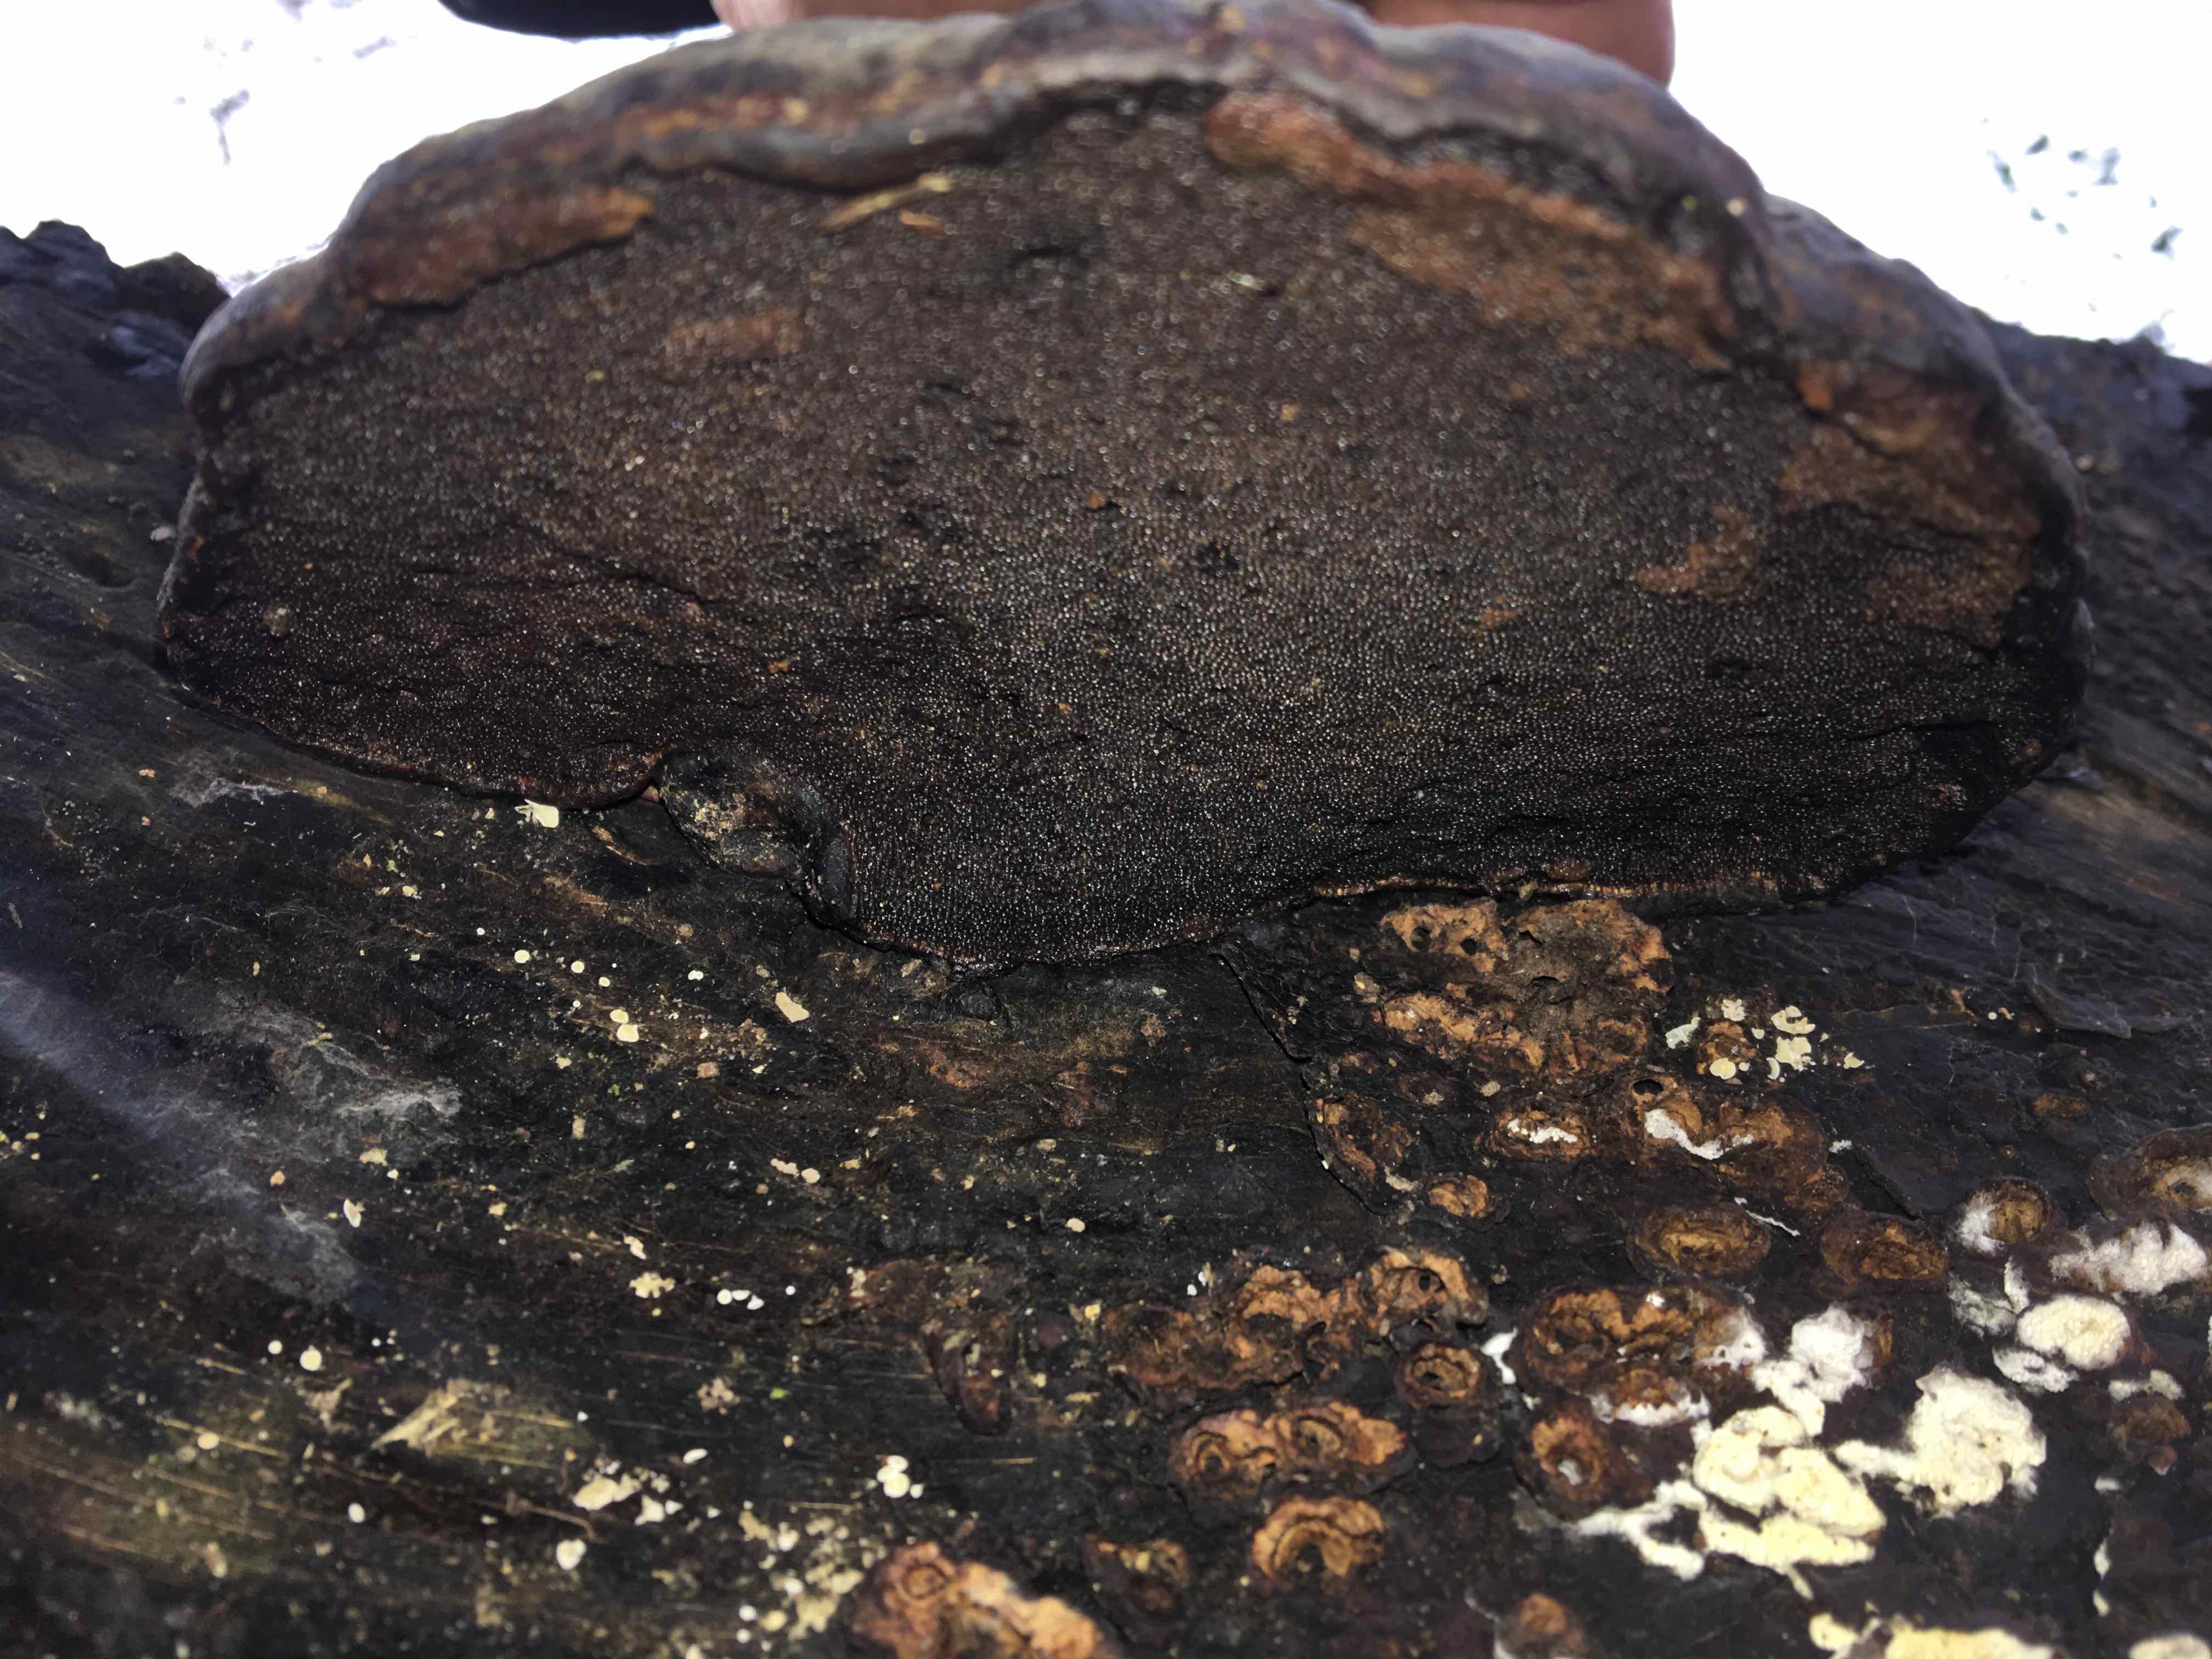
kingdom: Fungi
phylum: Basidiomycota
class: Agaricomycetes
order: Polyporales
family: Polyporaceae
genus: Fomes
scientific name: Fomes fomentarius
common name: tøndersvamp
